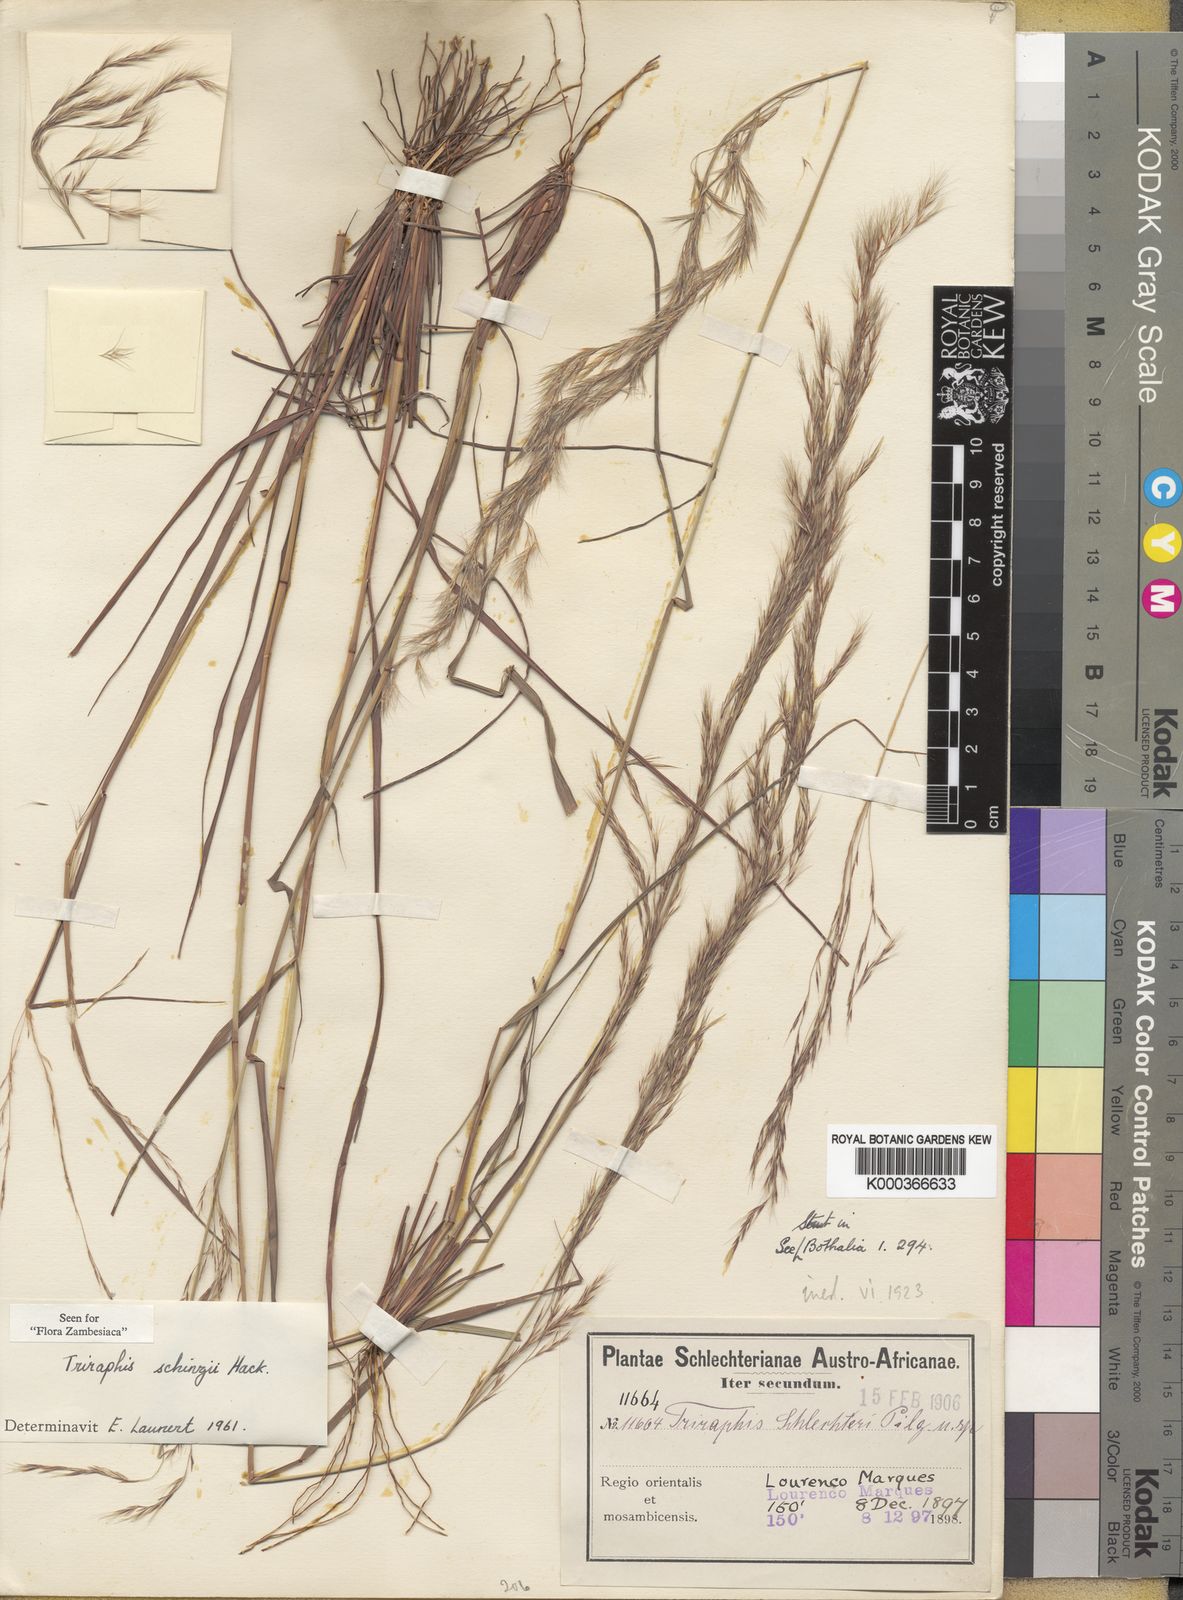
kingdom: Plantae
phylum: Tracheophyta
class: Liliopsida
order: Poales
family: Poaceae
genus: Triraphis
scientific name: Triraphis
